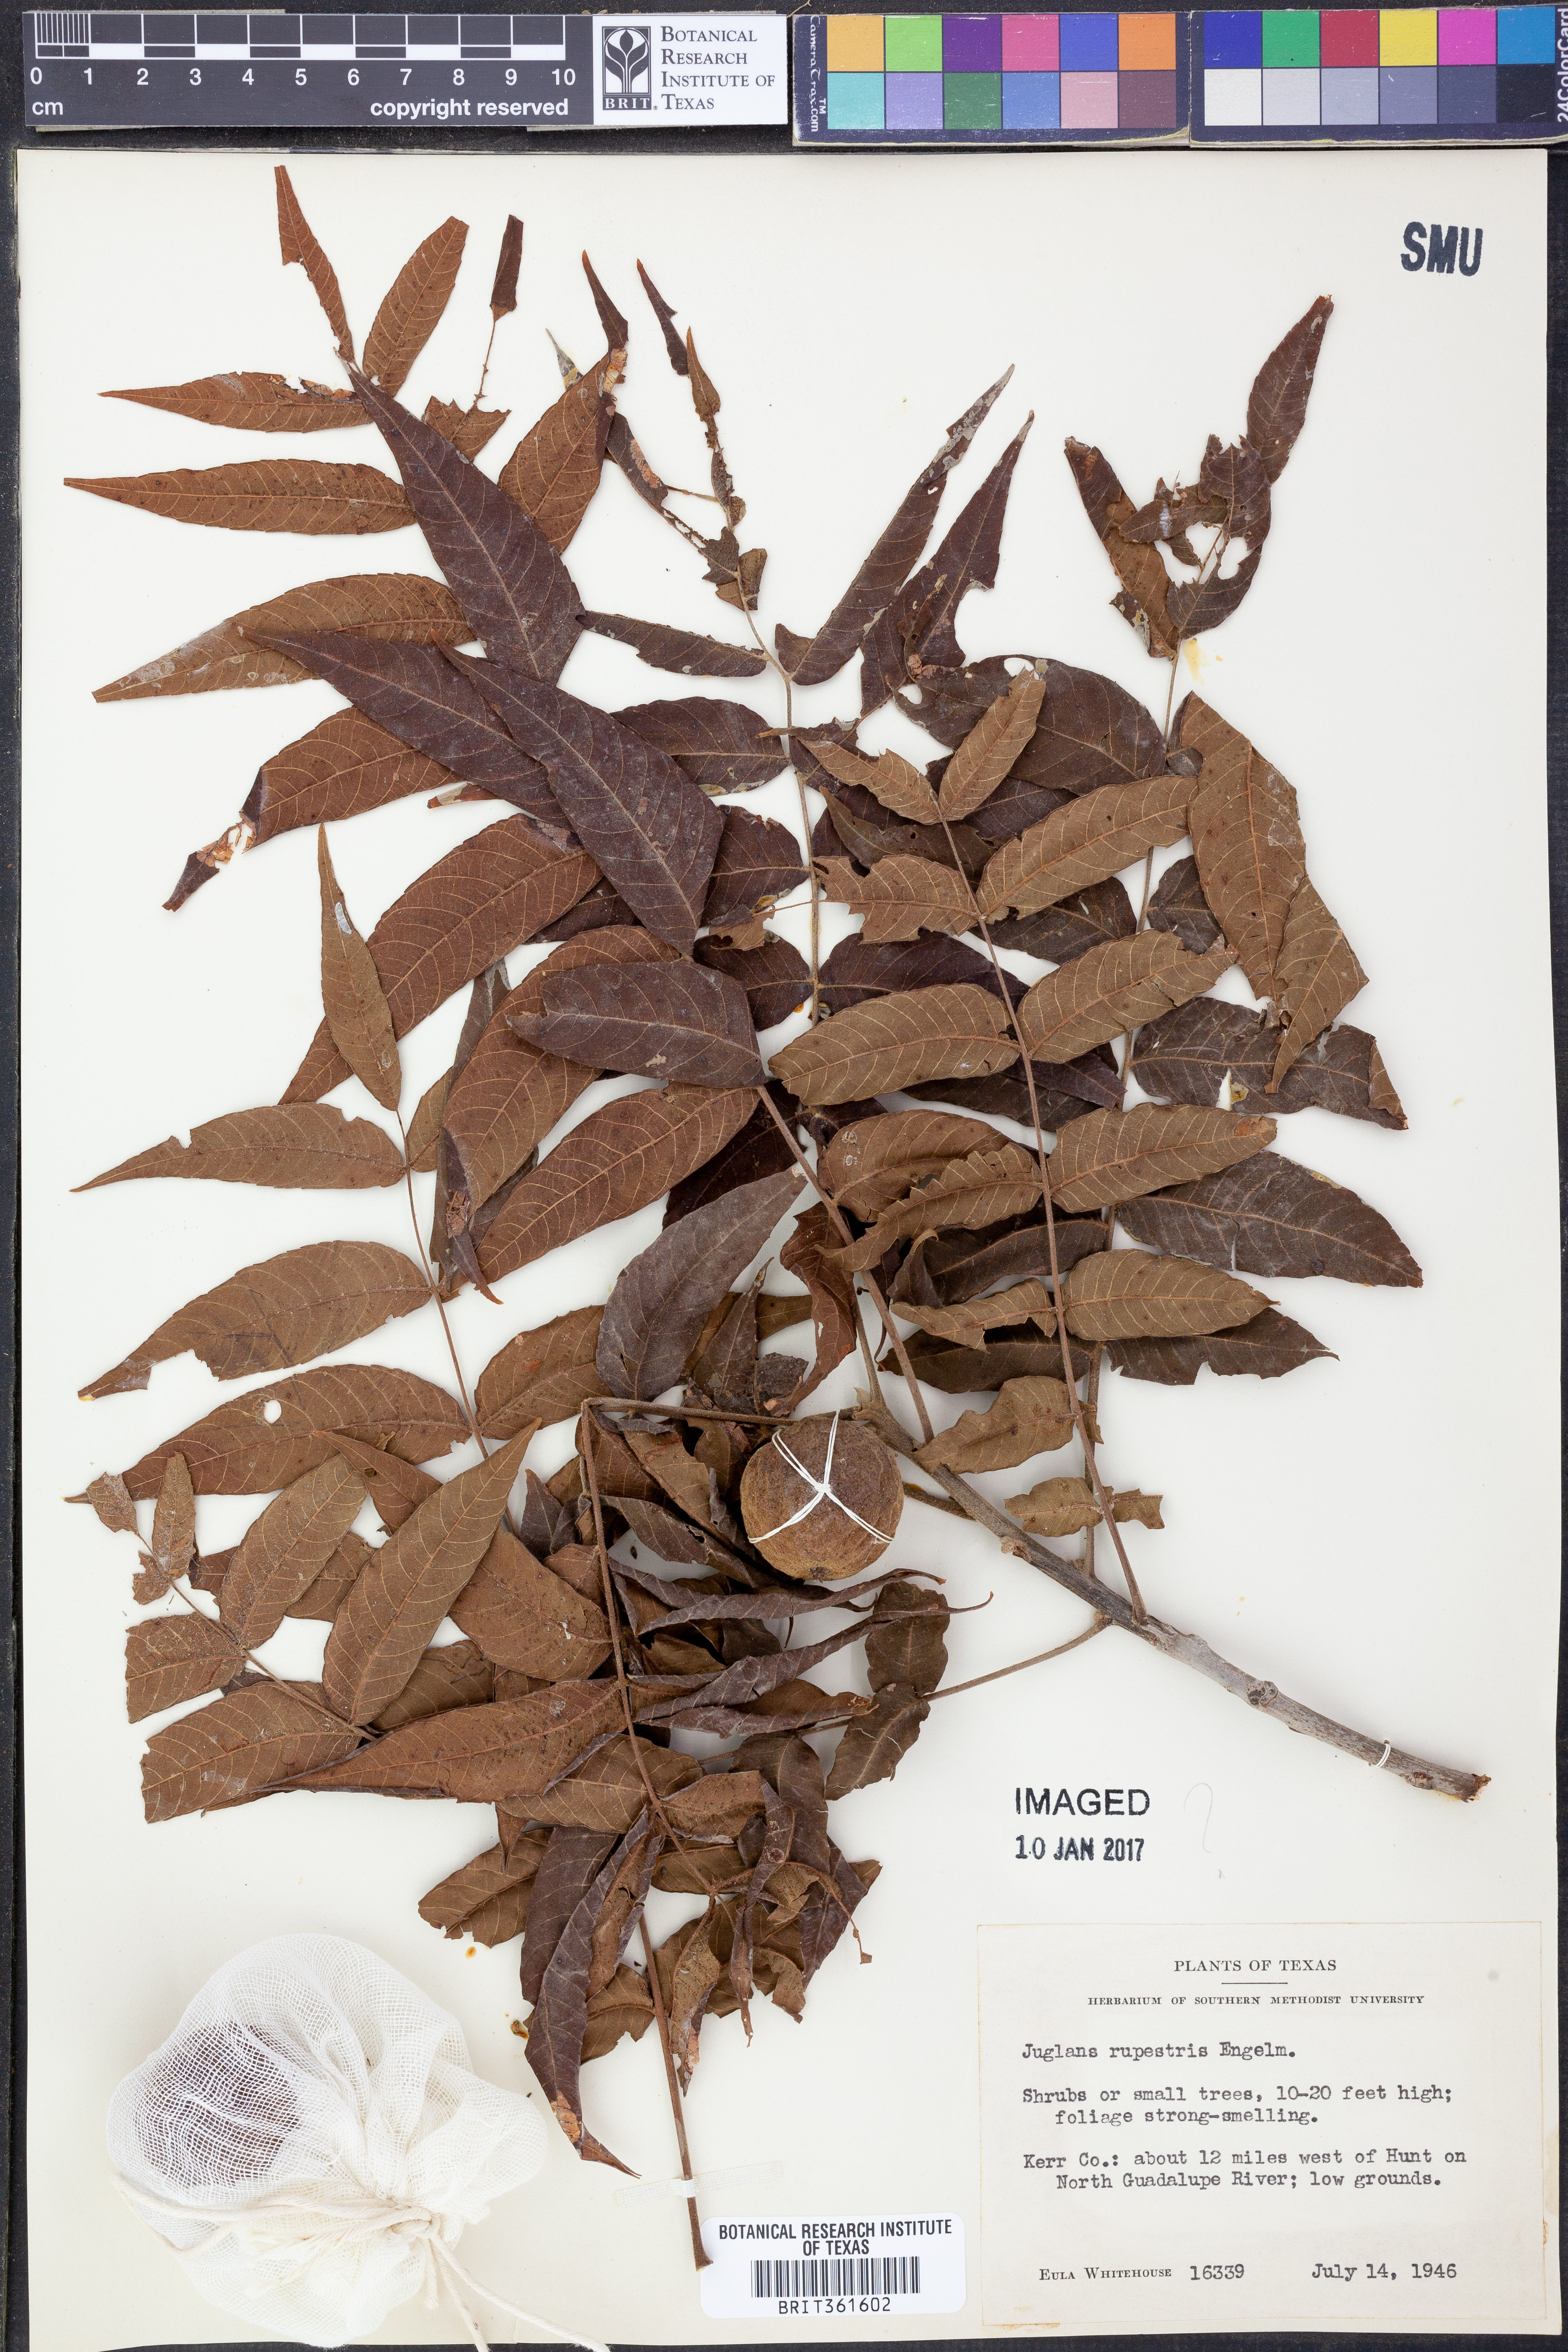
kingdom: Plantae
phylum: Tracheophyta
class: Magnoliopsida
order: Fagales
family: Juglandaceae
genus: Juglans
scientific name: Juglans microcarpa
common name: Texas walnut
